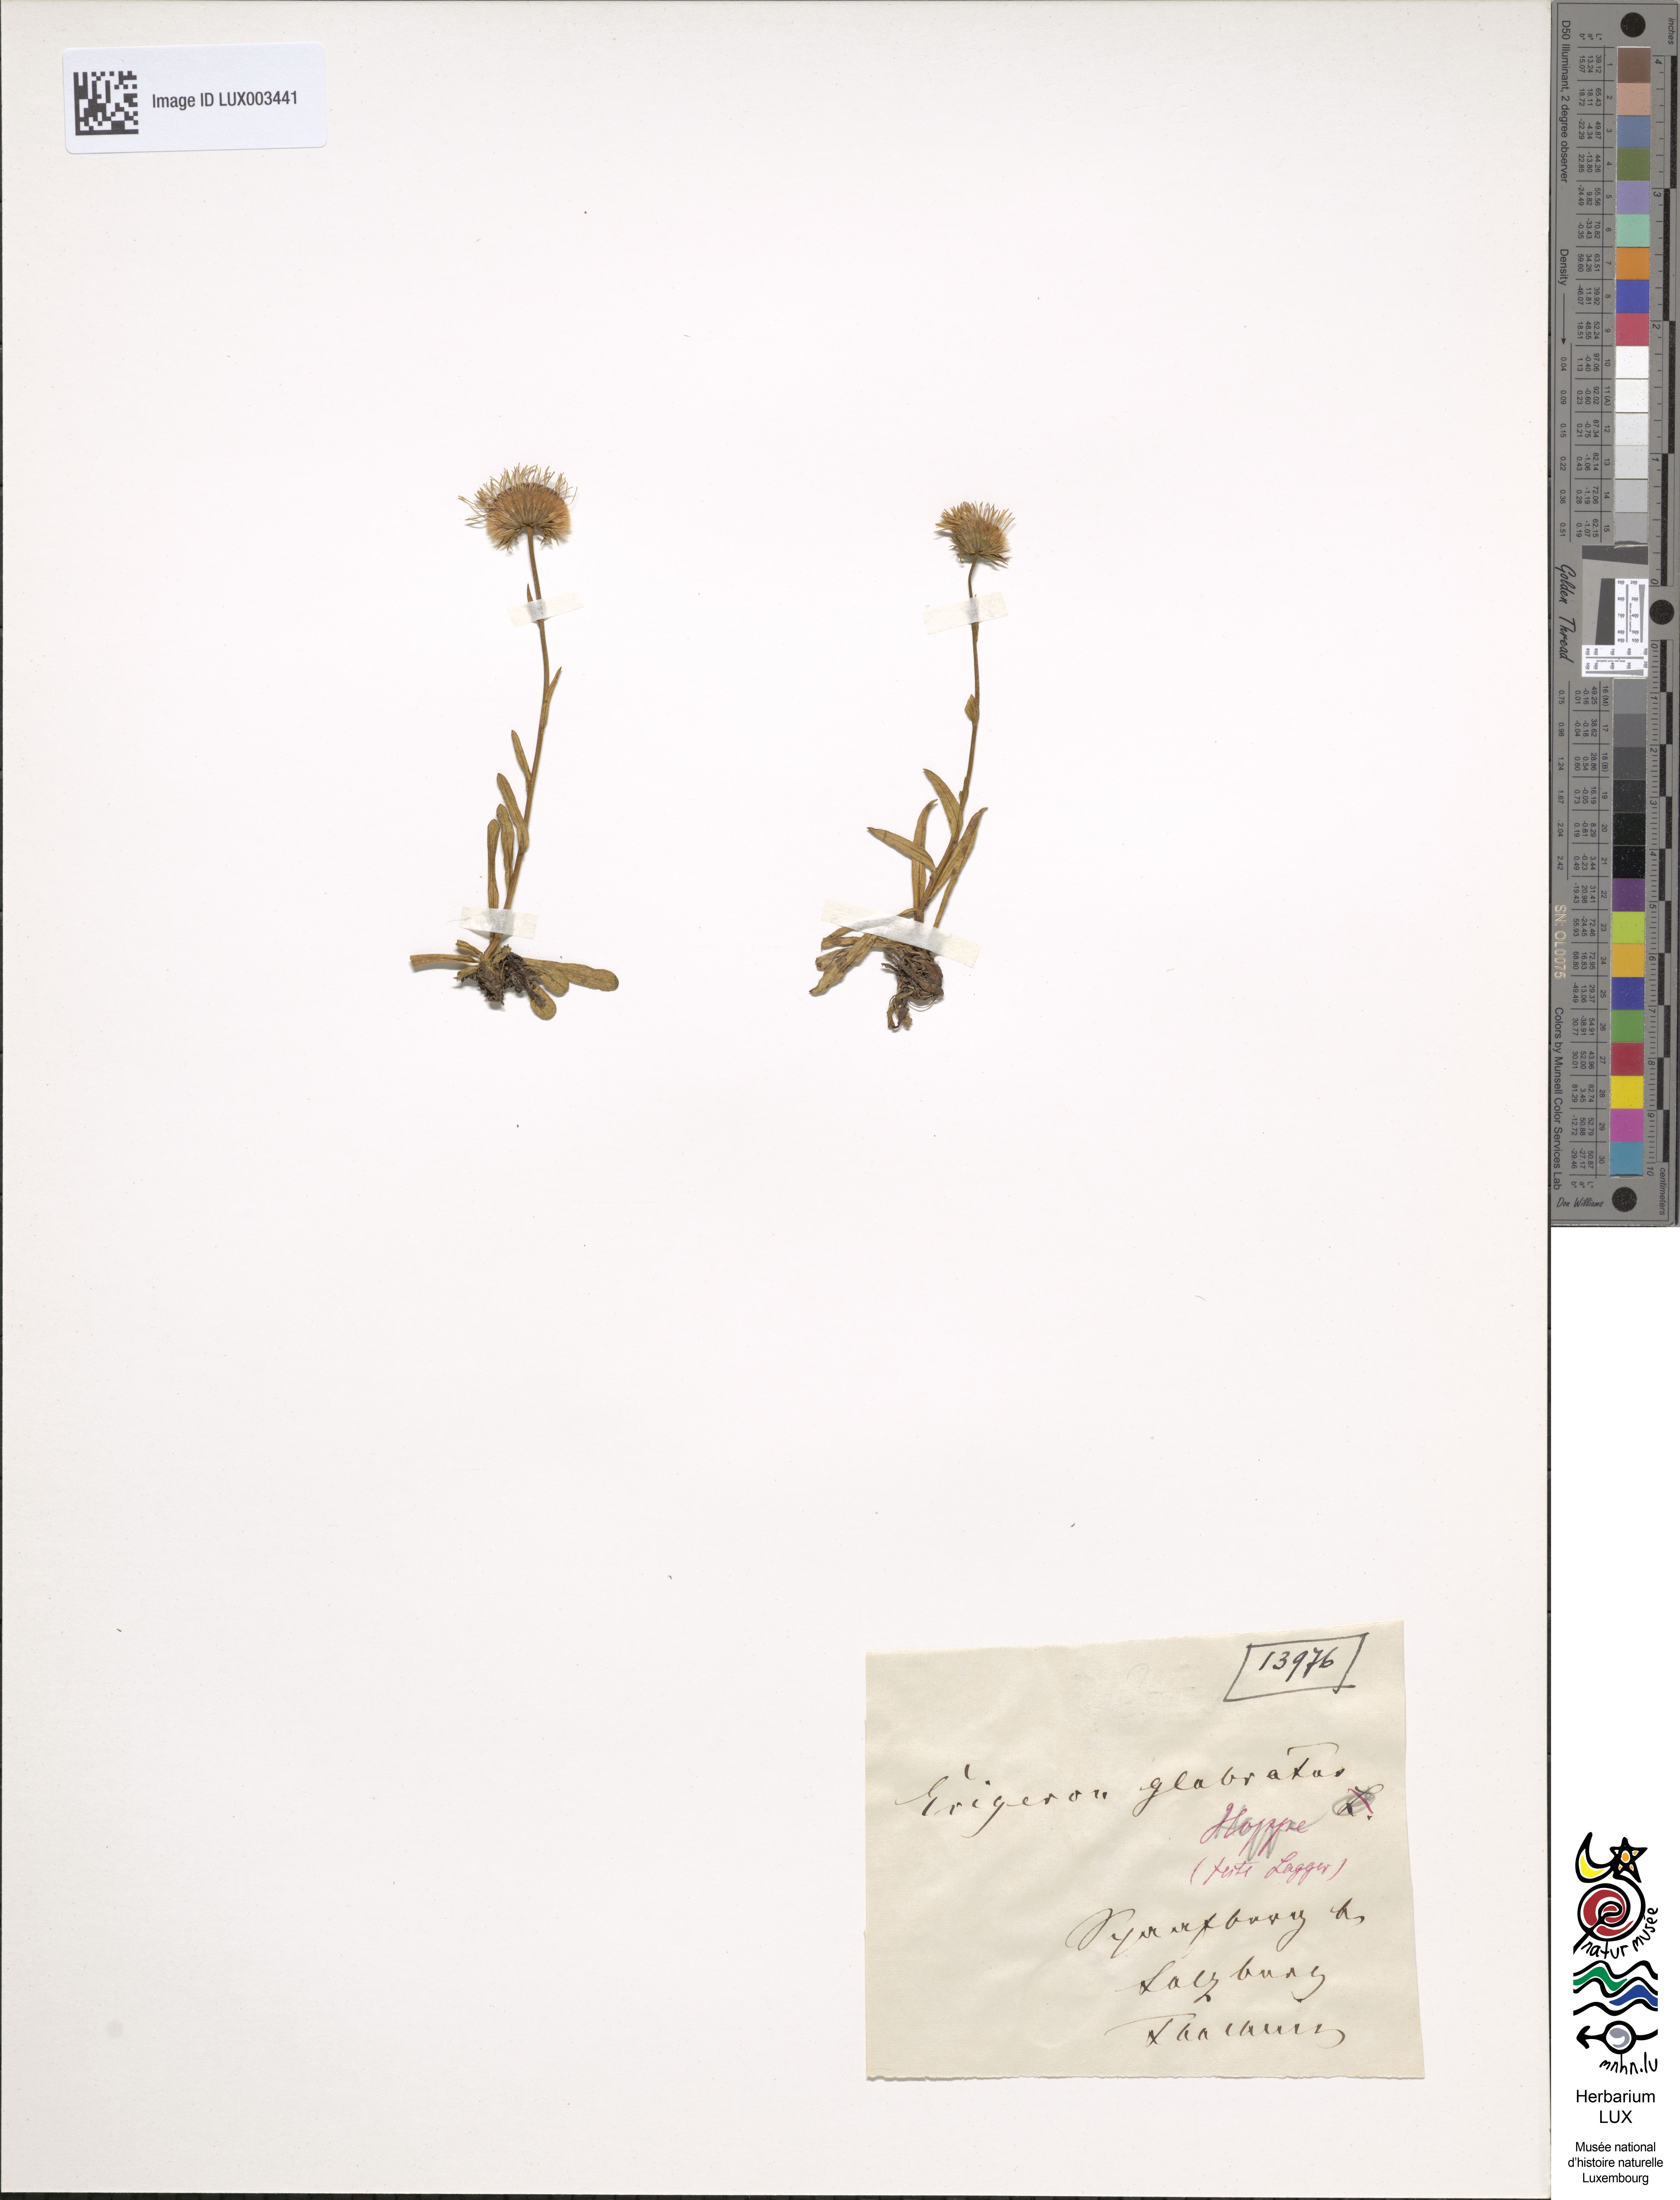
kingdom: Plantae
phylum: Tracheophyta
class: Magnoliopsida
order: Asterales
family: Asteraceae
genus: Erigeron
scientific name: Erigeron glabratus
